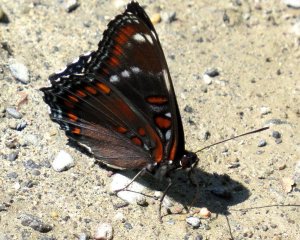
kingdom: Animalia
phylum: Arthropoda
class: Insecta
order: Lepidoptera
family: Nymphalidae
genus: Limenitis
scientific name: Limenitis
